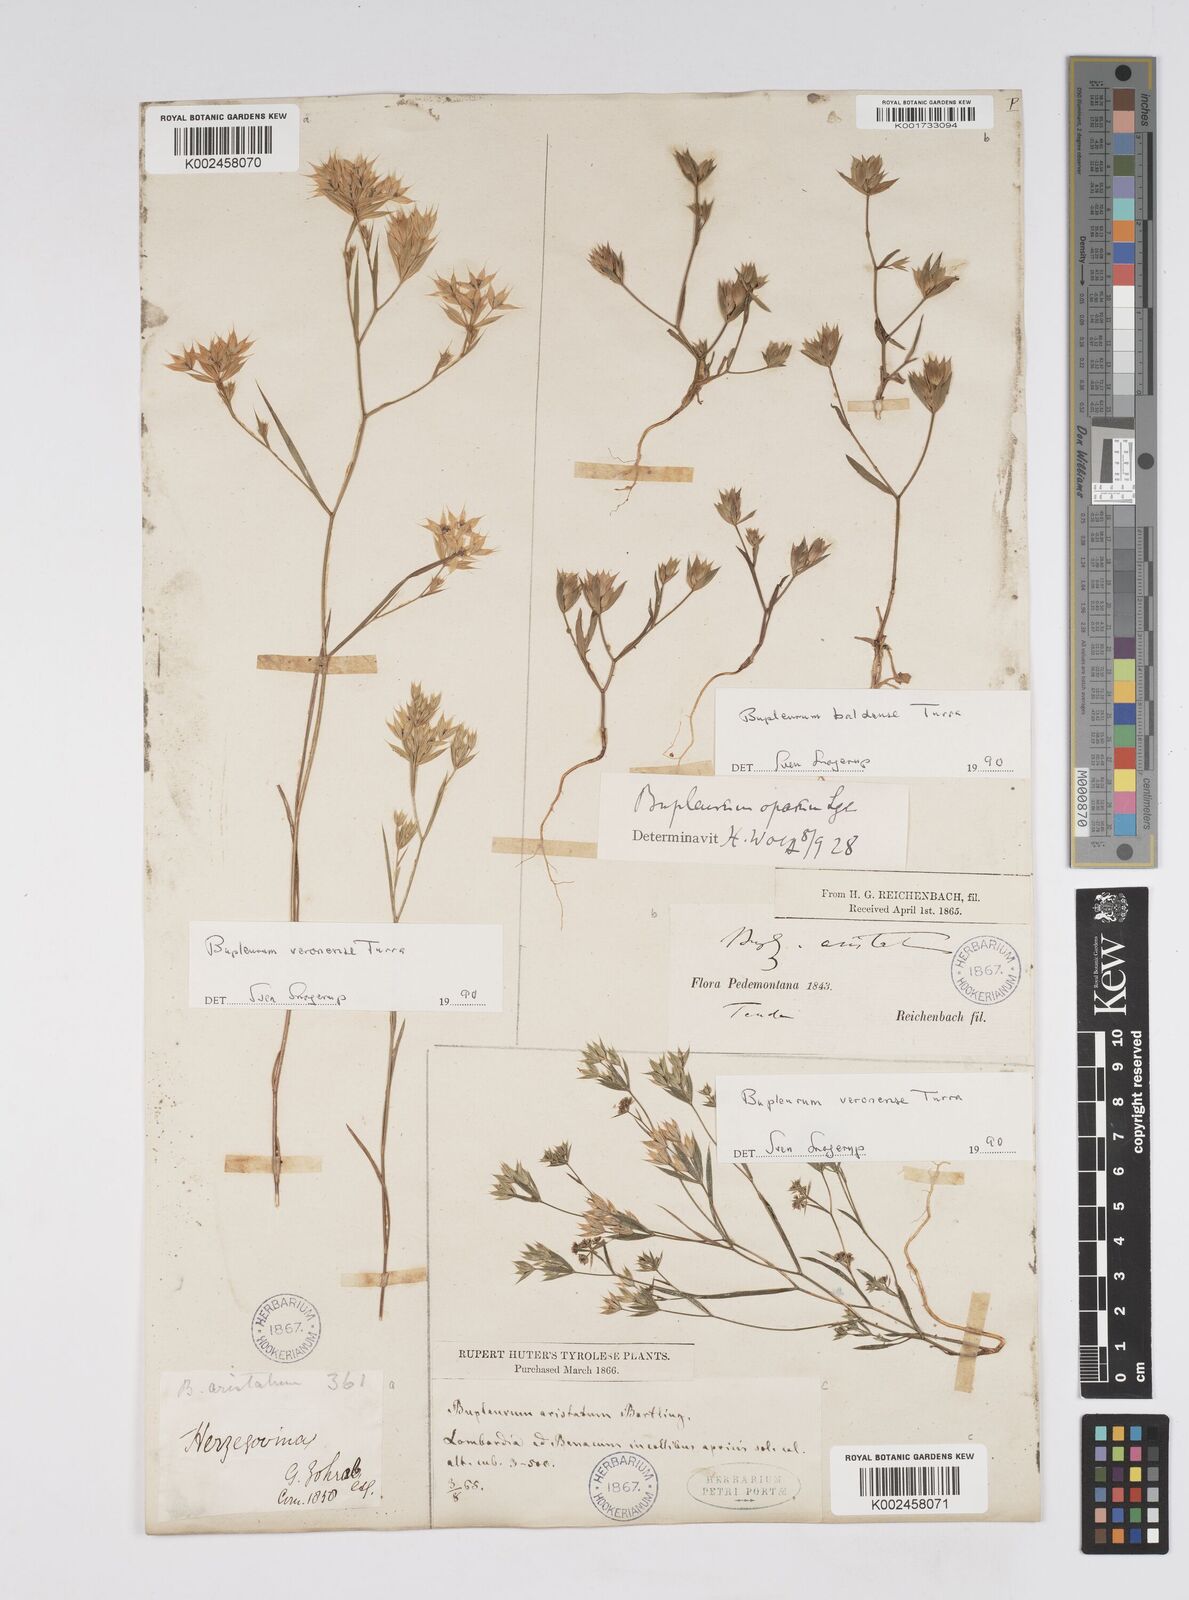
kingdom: Plantae
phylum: Tracheophyta
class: Magnoliopsida
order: Apiales
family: Apiaceae
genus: Bupleurum
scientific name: Bupleurum baldense
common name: Small hare's-ear
